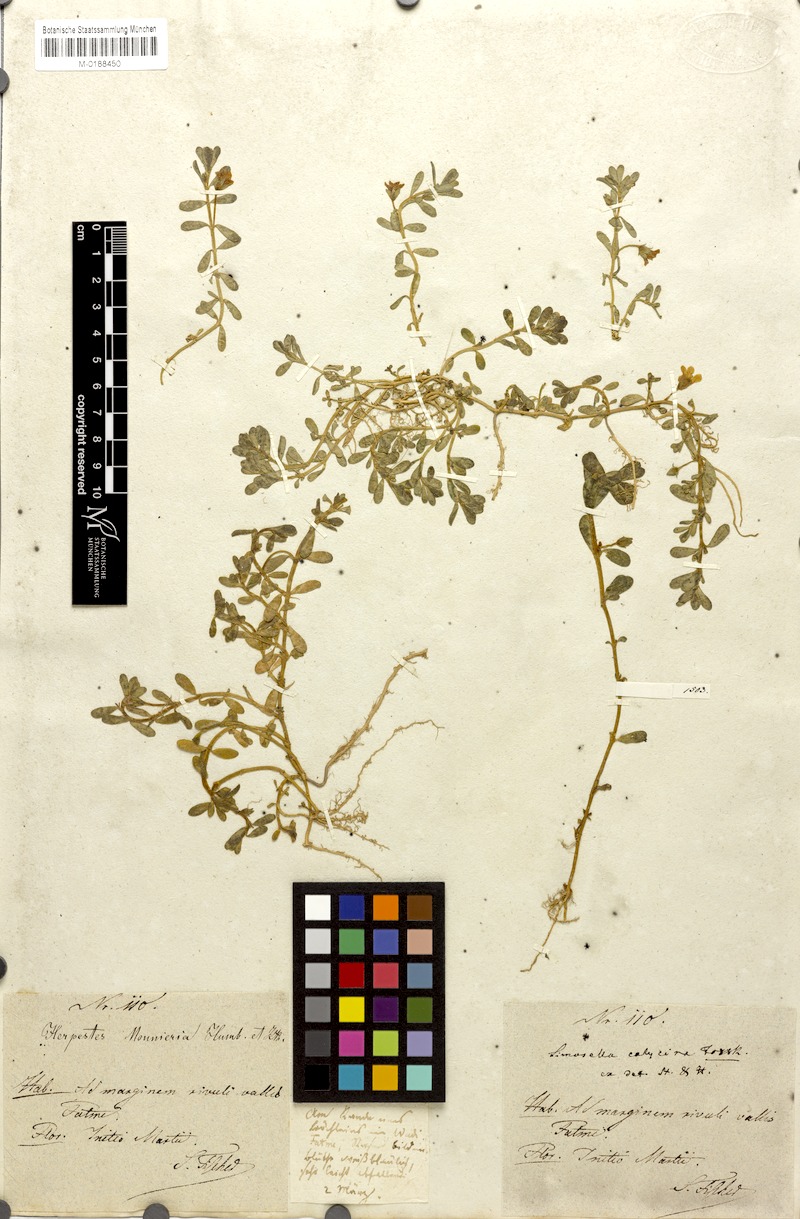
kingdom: Plantae
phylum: Tracheophyta
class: Magnoliopsida
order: Lamiales
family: Plantaginaceae
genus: Bacopa
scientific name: Bacopa monnieri
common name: Indian-pennywort
